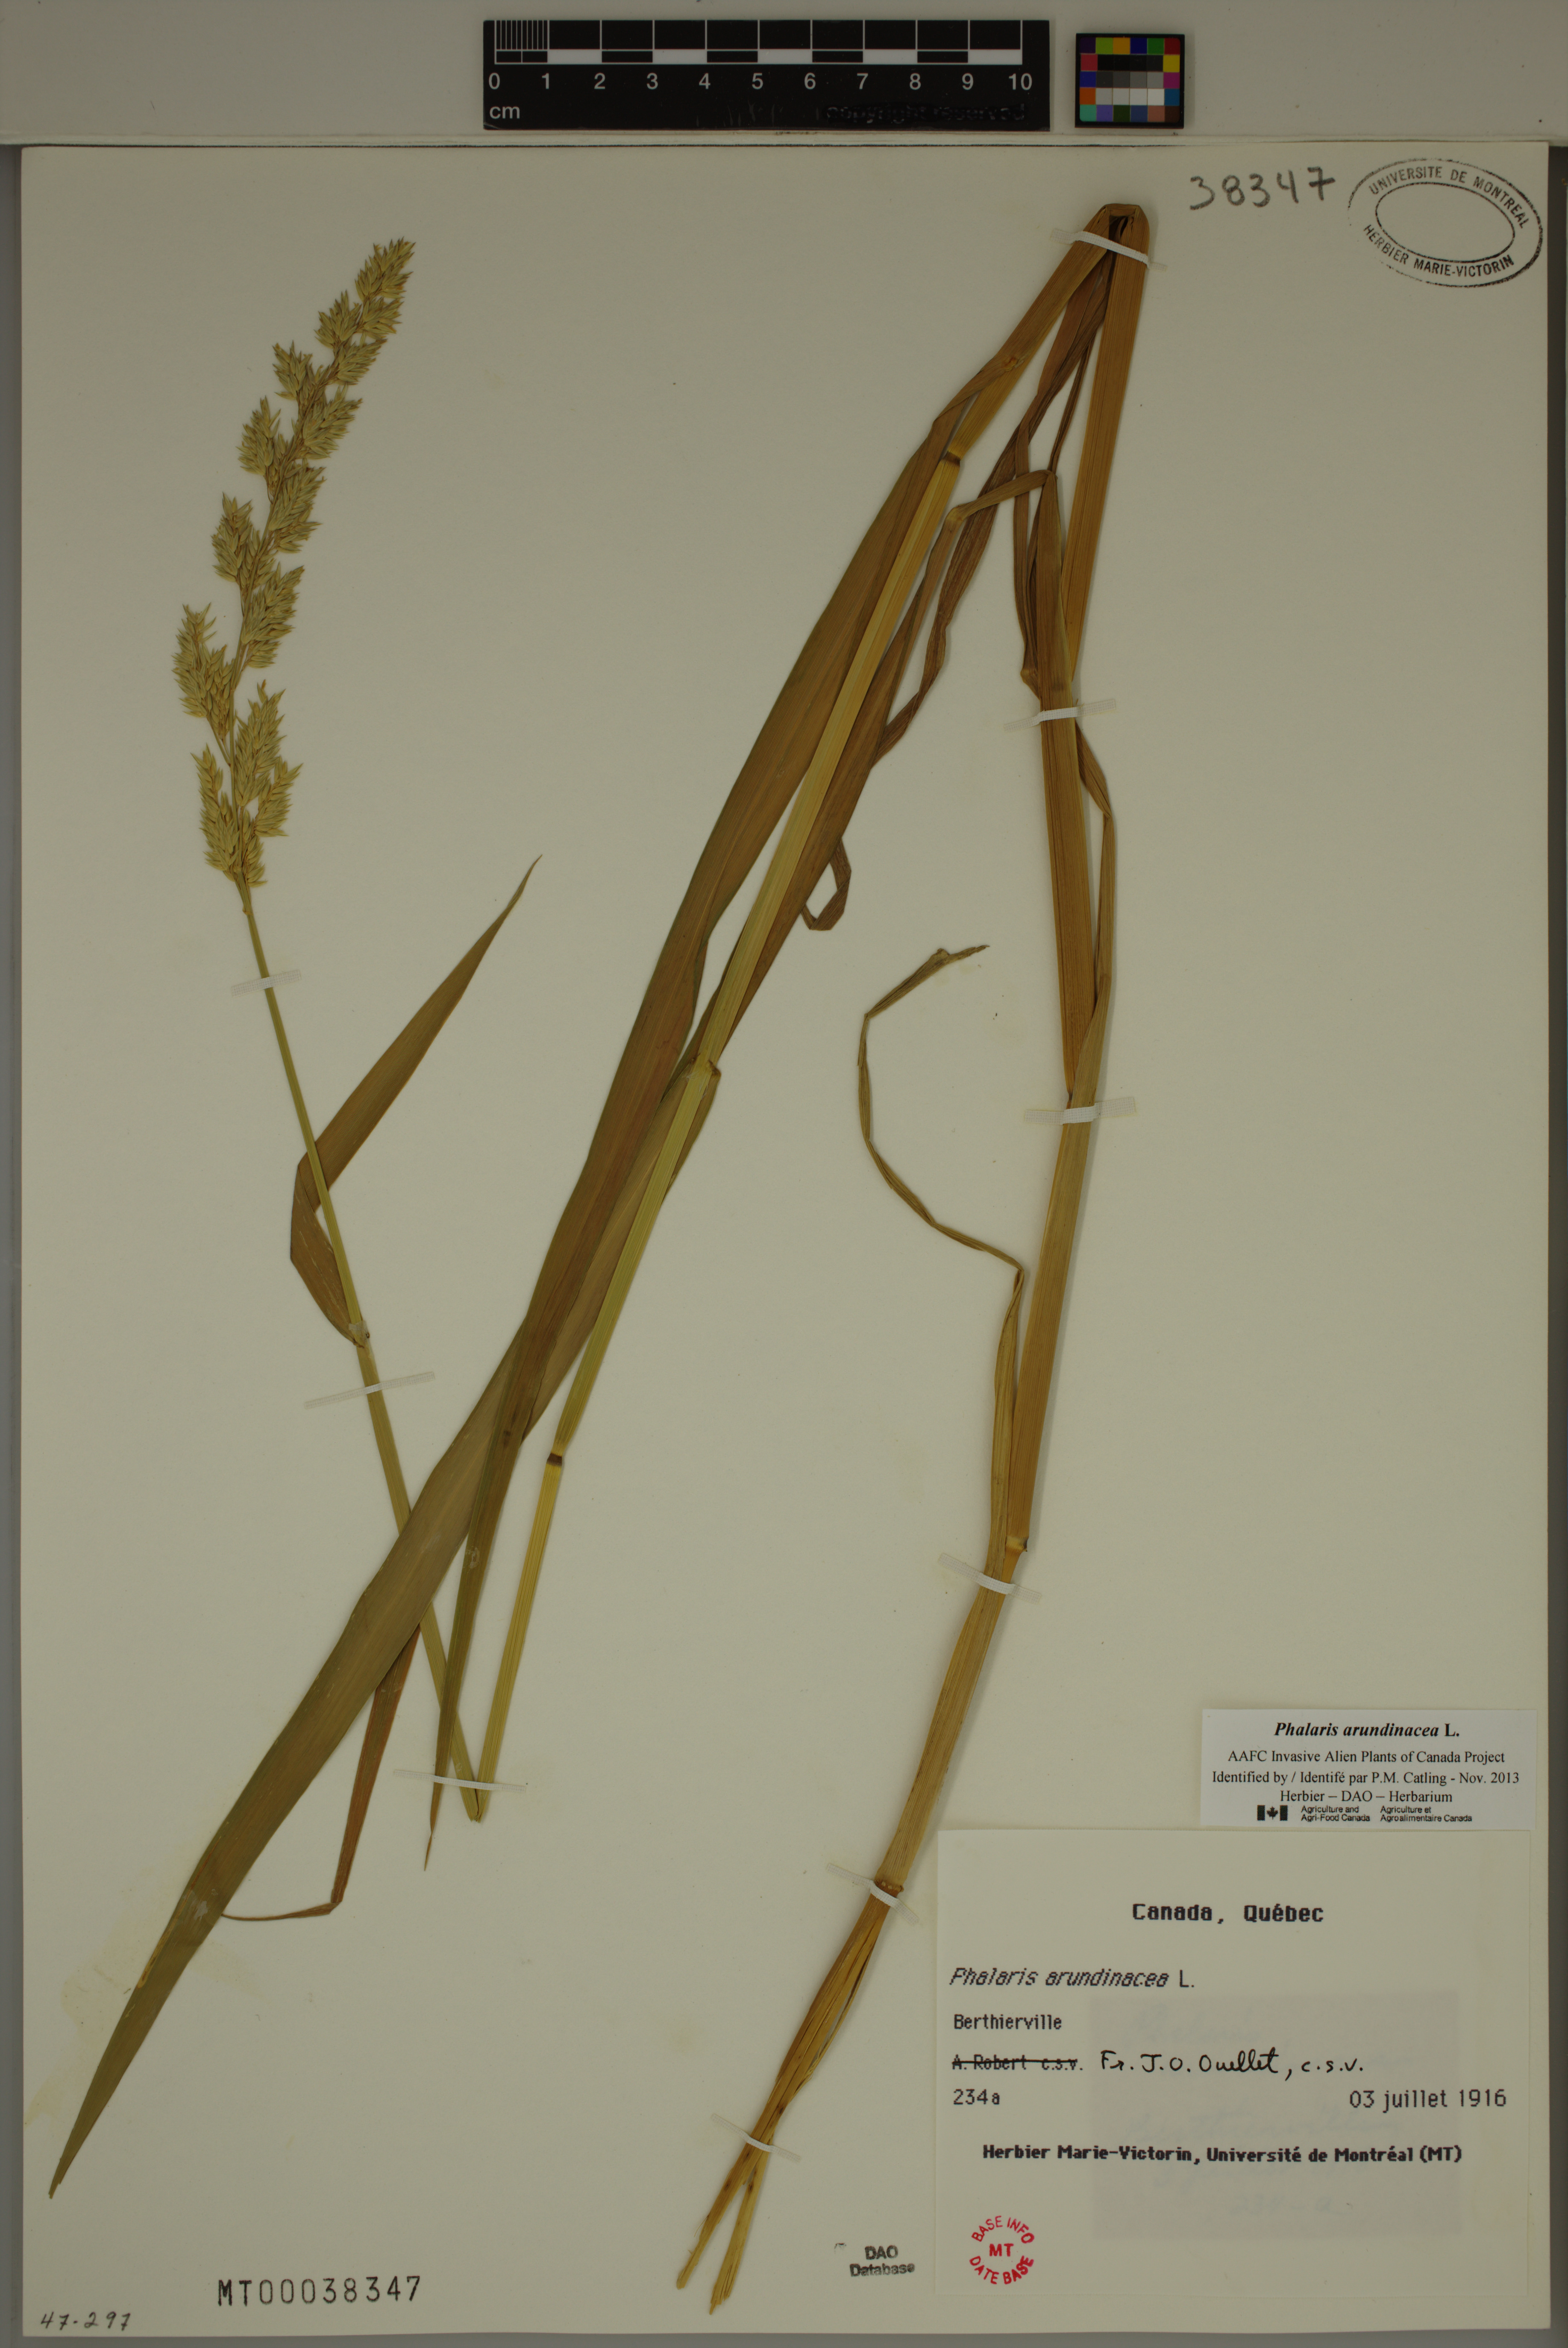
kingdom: Plantae
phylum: Tracheophyta
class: Liliopsida
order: Poales
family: Poaceae
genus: Phalaris
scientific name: Phalaris arundinacea
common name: Reed canary-grass
